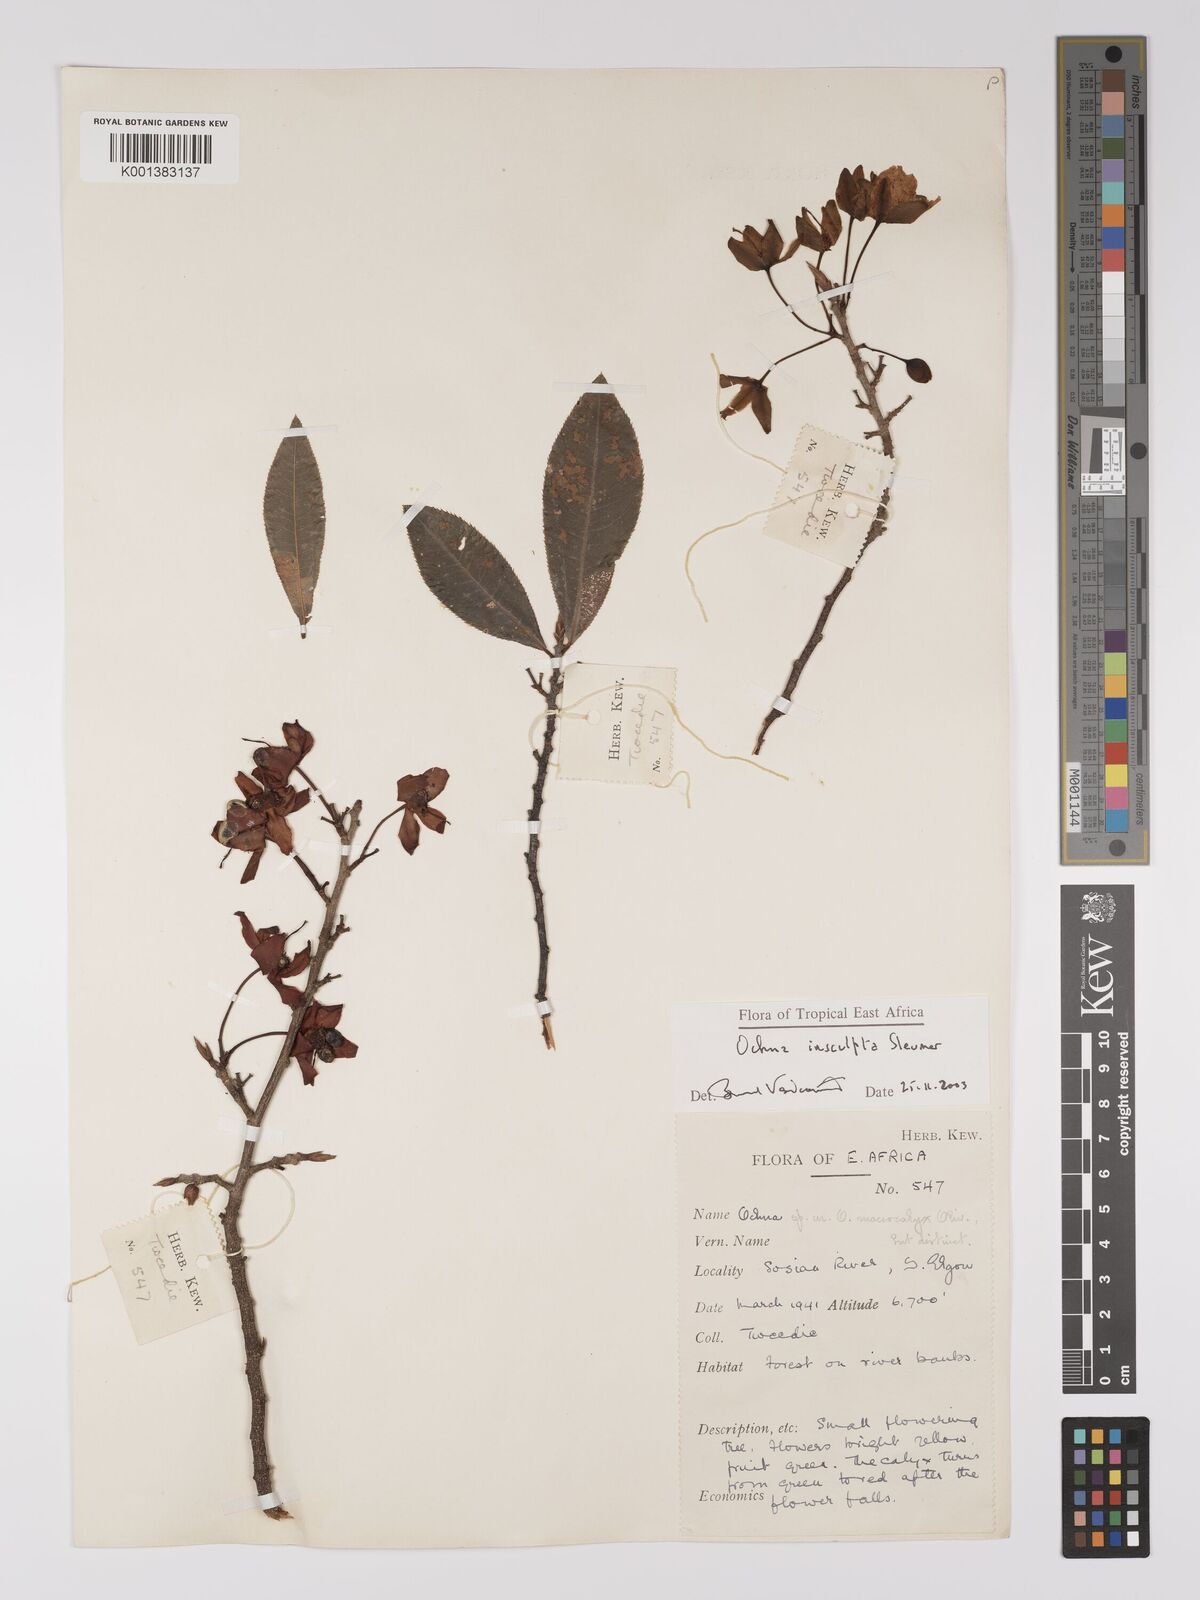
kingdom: Plantae
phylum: Tracheophyta
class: Magnoliopsida
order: Malpighiales
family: Ochnaceae
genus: Ochna
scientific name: Ochna insculpta
